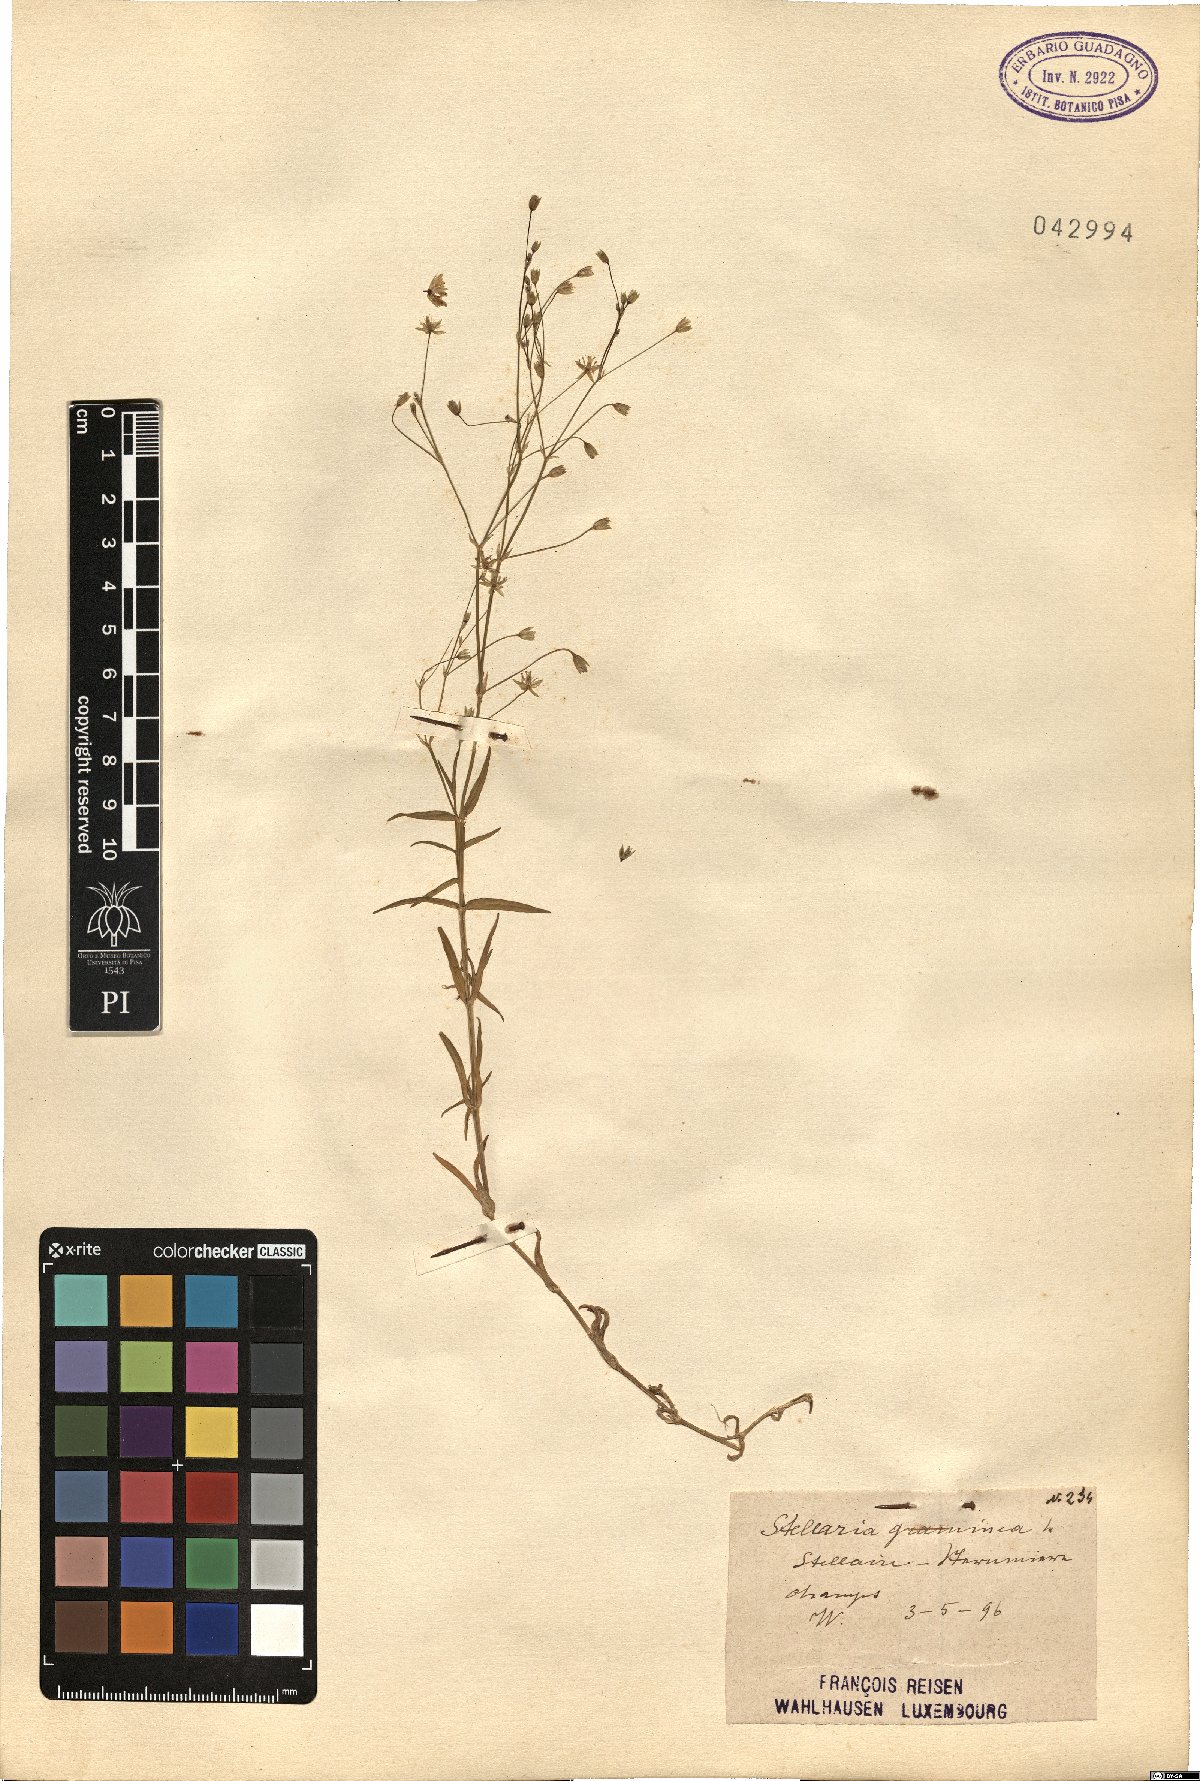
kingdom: Plantae
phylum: Tracheophyta
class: Magnoliopsida
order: Caryophyllales
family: Caryophyllaceae
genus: Stellaria
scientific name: Stellaria graminea
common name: Grass-like starwort
